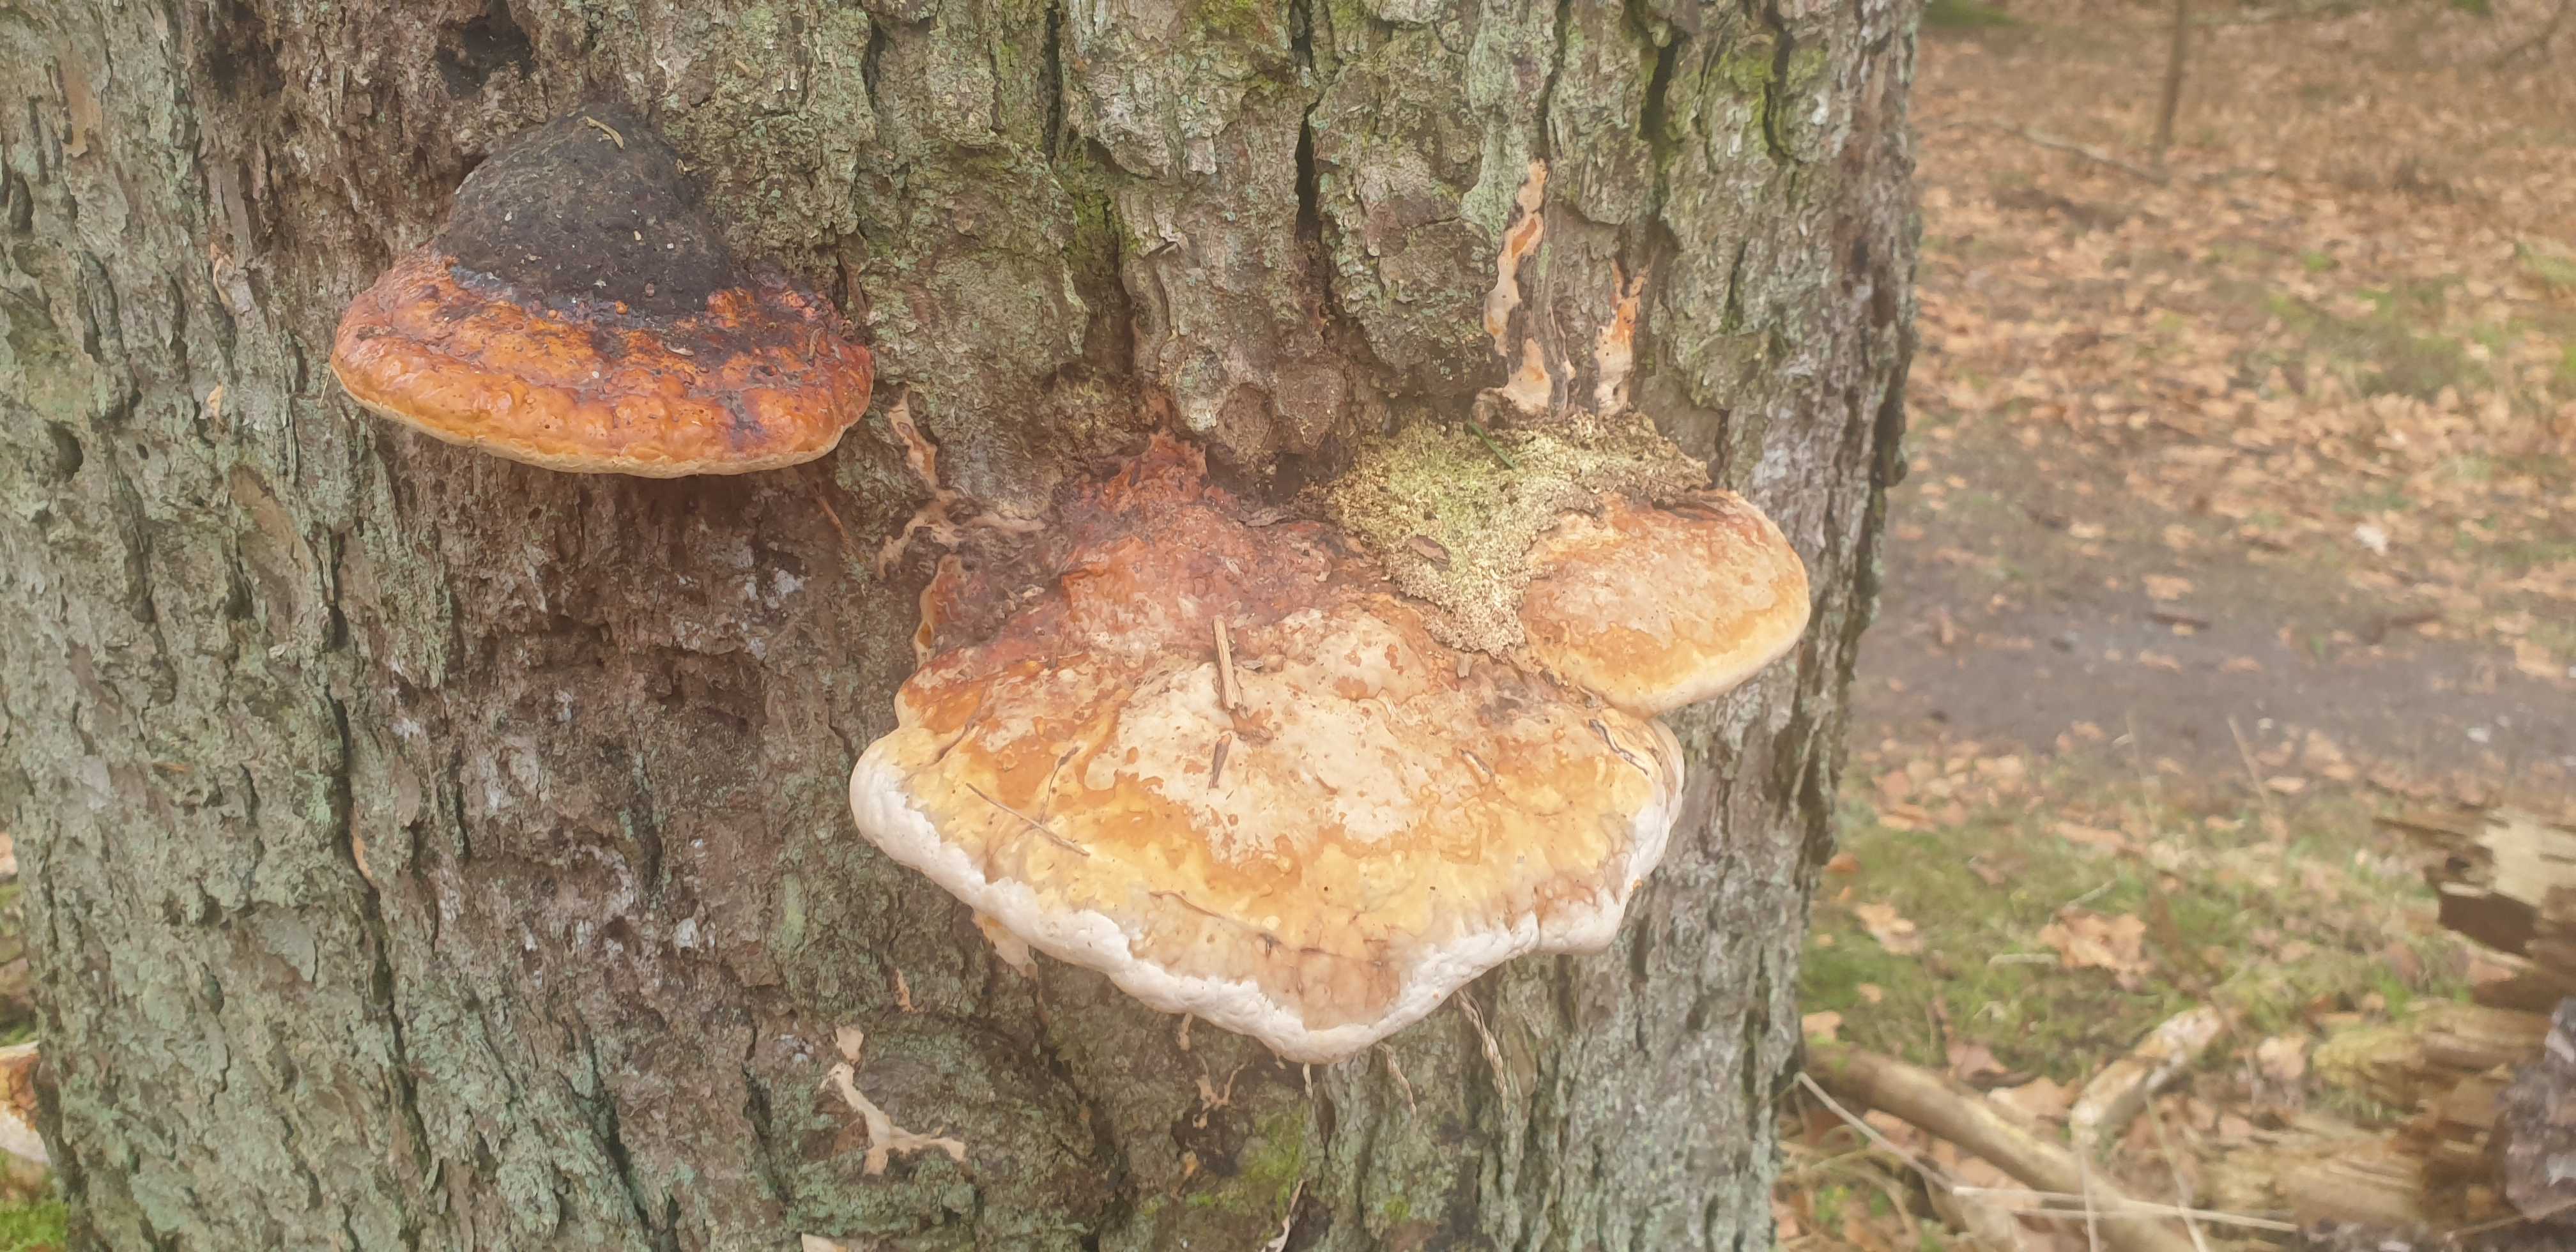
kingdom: Fungi
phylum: Basidiomycota
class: Agaricomycetes
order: Polyporales
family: Fomitopsidaceae
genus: Fomitopsis
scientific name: Fomitopsis pinicola
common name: randbæltet hovporesvamp
